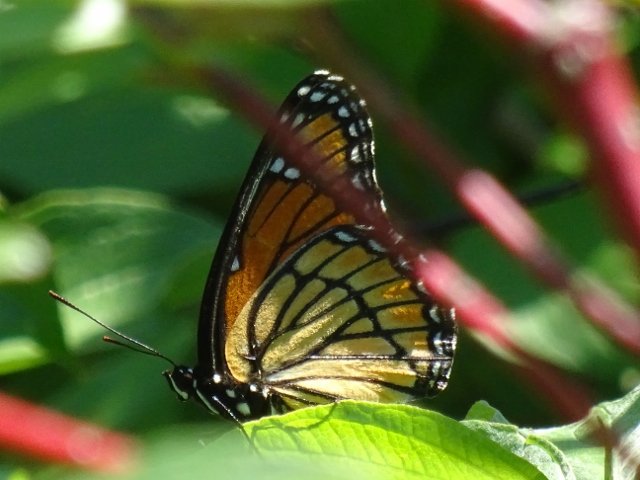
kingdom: Animalia
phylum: Arthropoda
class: Insecta
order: Lepidoptera
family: Nymphalidae
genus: Limenitis
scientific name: Limenitis archippus
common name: Viceroy
